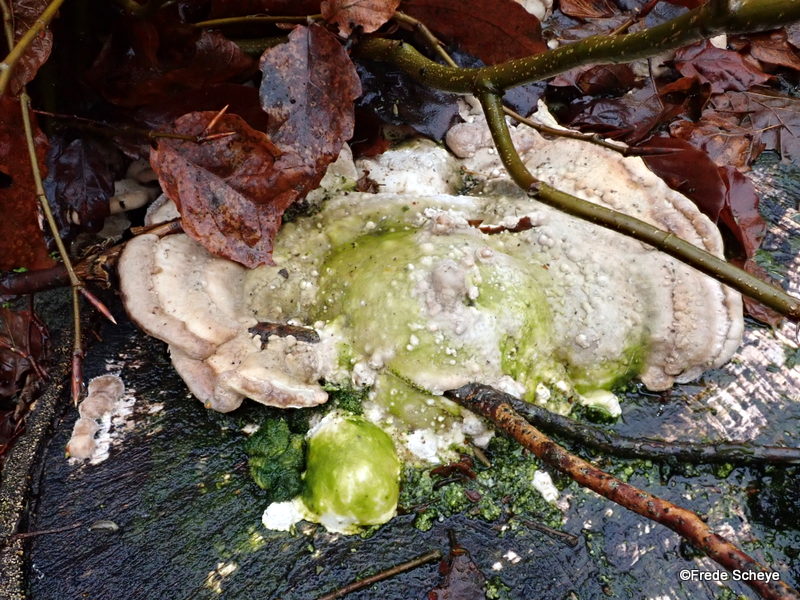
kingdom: Fungi
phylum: Basidiomycota
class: Agaricomycetes
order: Polyporales
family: Polyporaceae
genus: Trametes
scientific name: Trametes gibbosa
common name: puklet læderporesvamp
